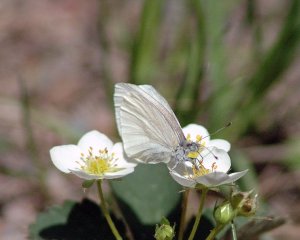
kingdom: Animalia
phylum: Arthropoda
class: Insecta
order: Lepidoptera
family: Pieridae
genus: Pieris
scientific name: Pieris virginiensis
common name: West Virginia White
